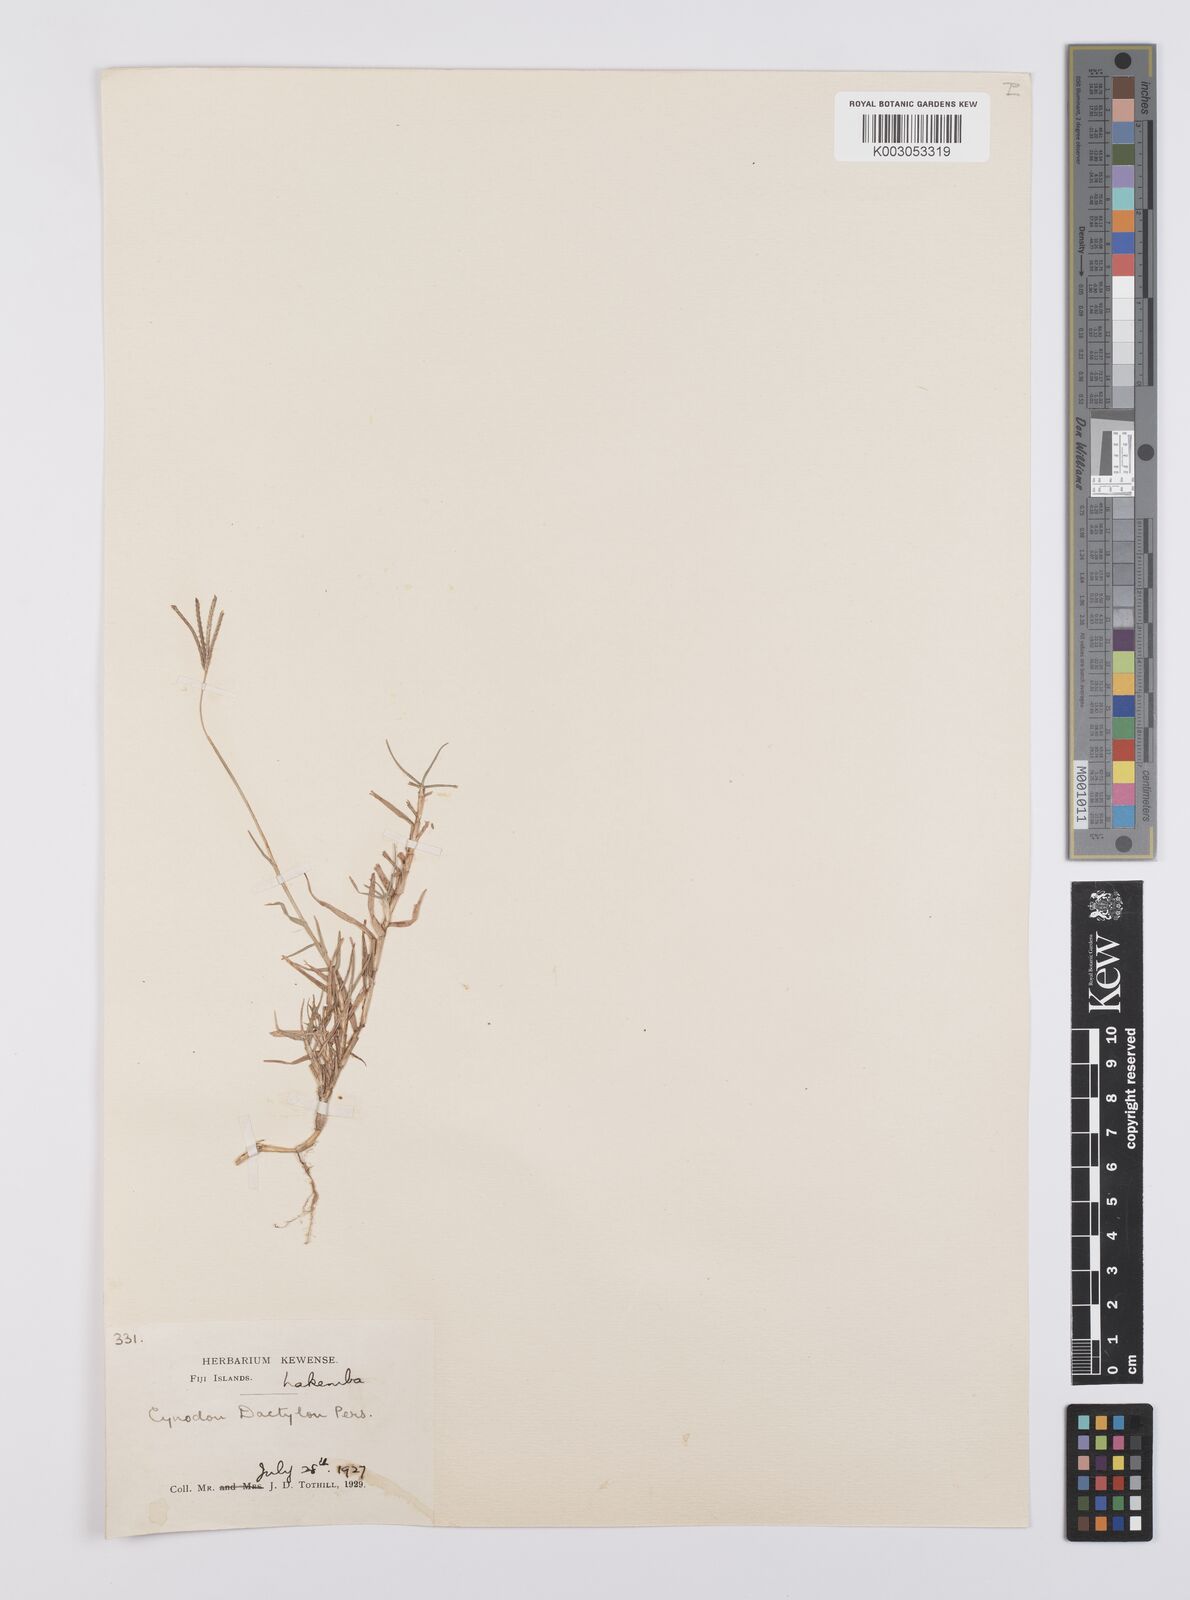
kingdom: Plantae
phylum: Tracheophyta
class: Liliopsida
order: Poales
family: Poaceae
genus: Cynodon
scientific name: Cynodon dactylon
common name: Bermuda grass
